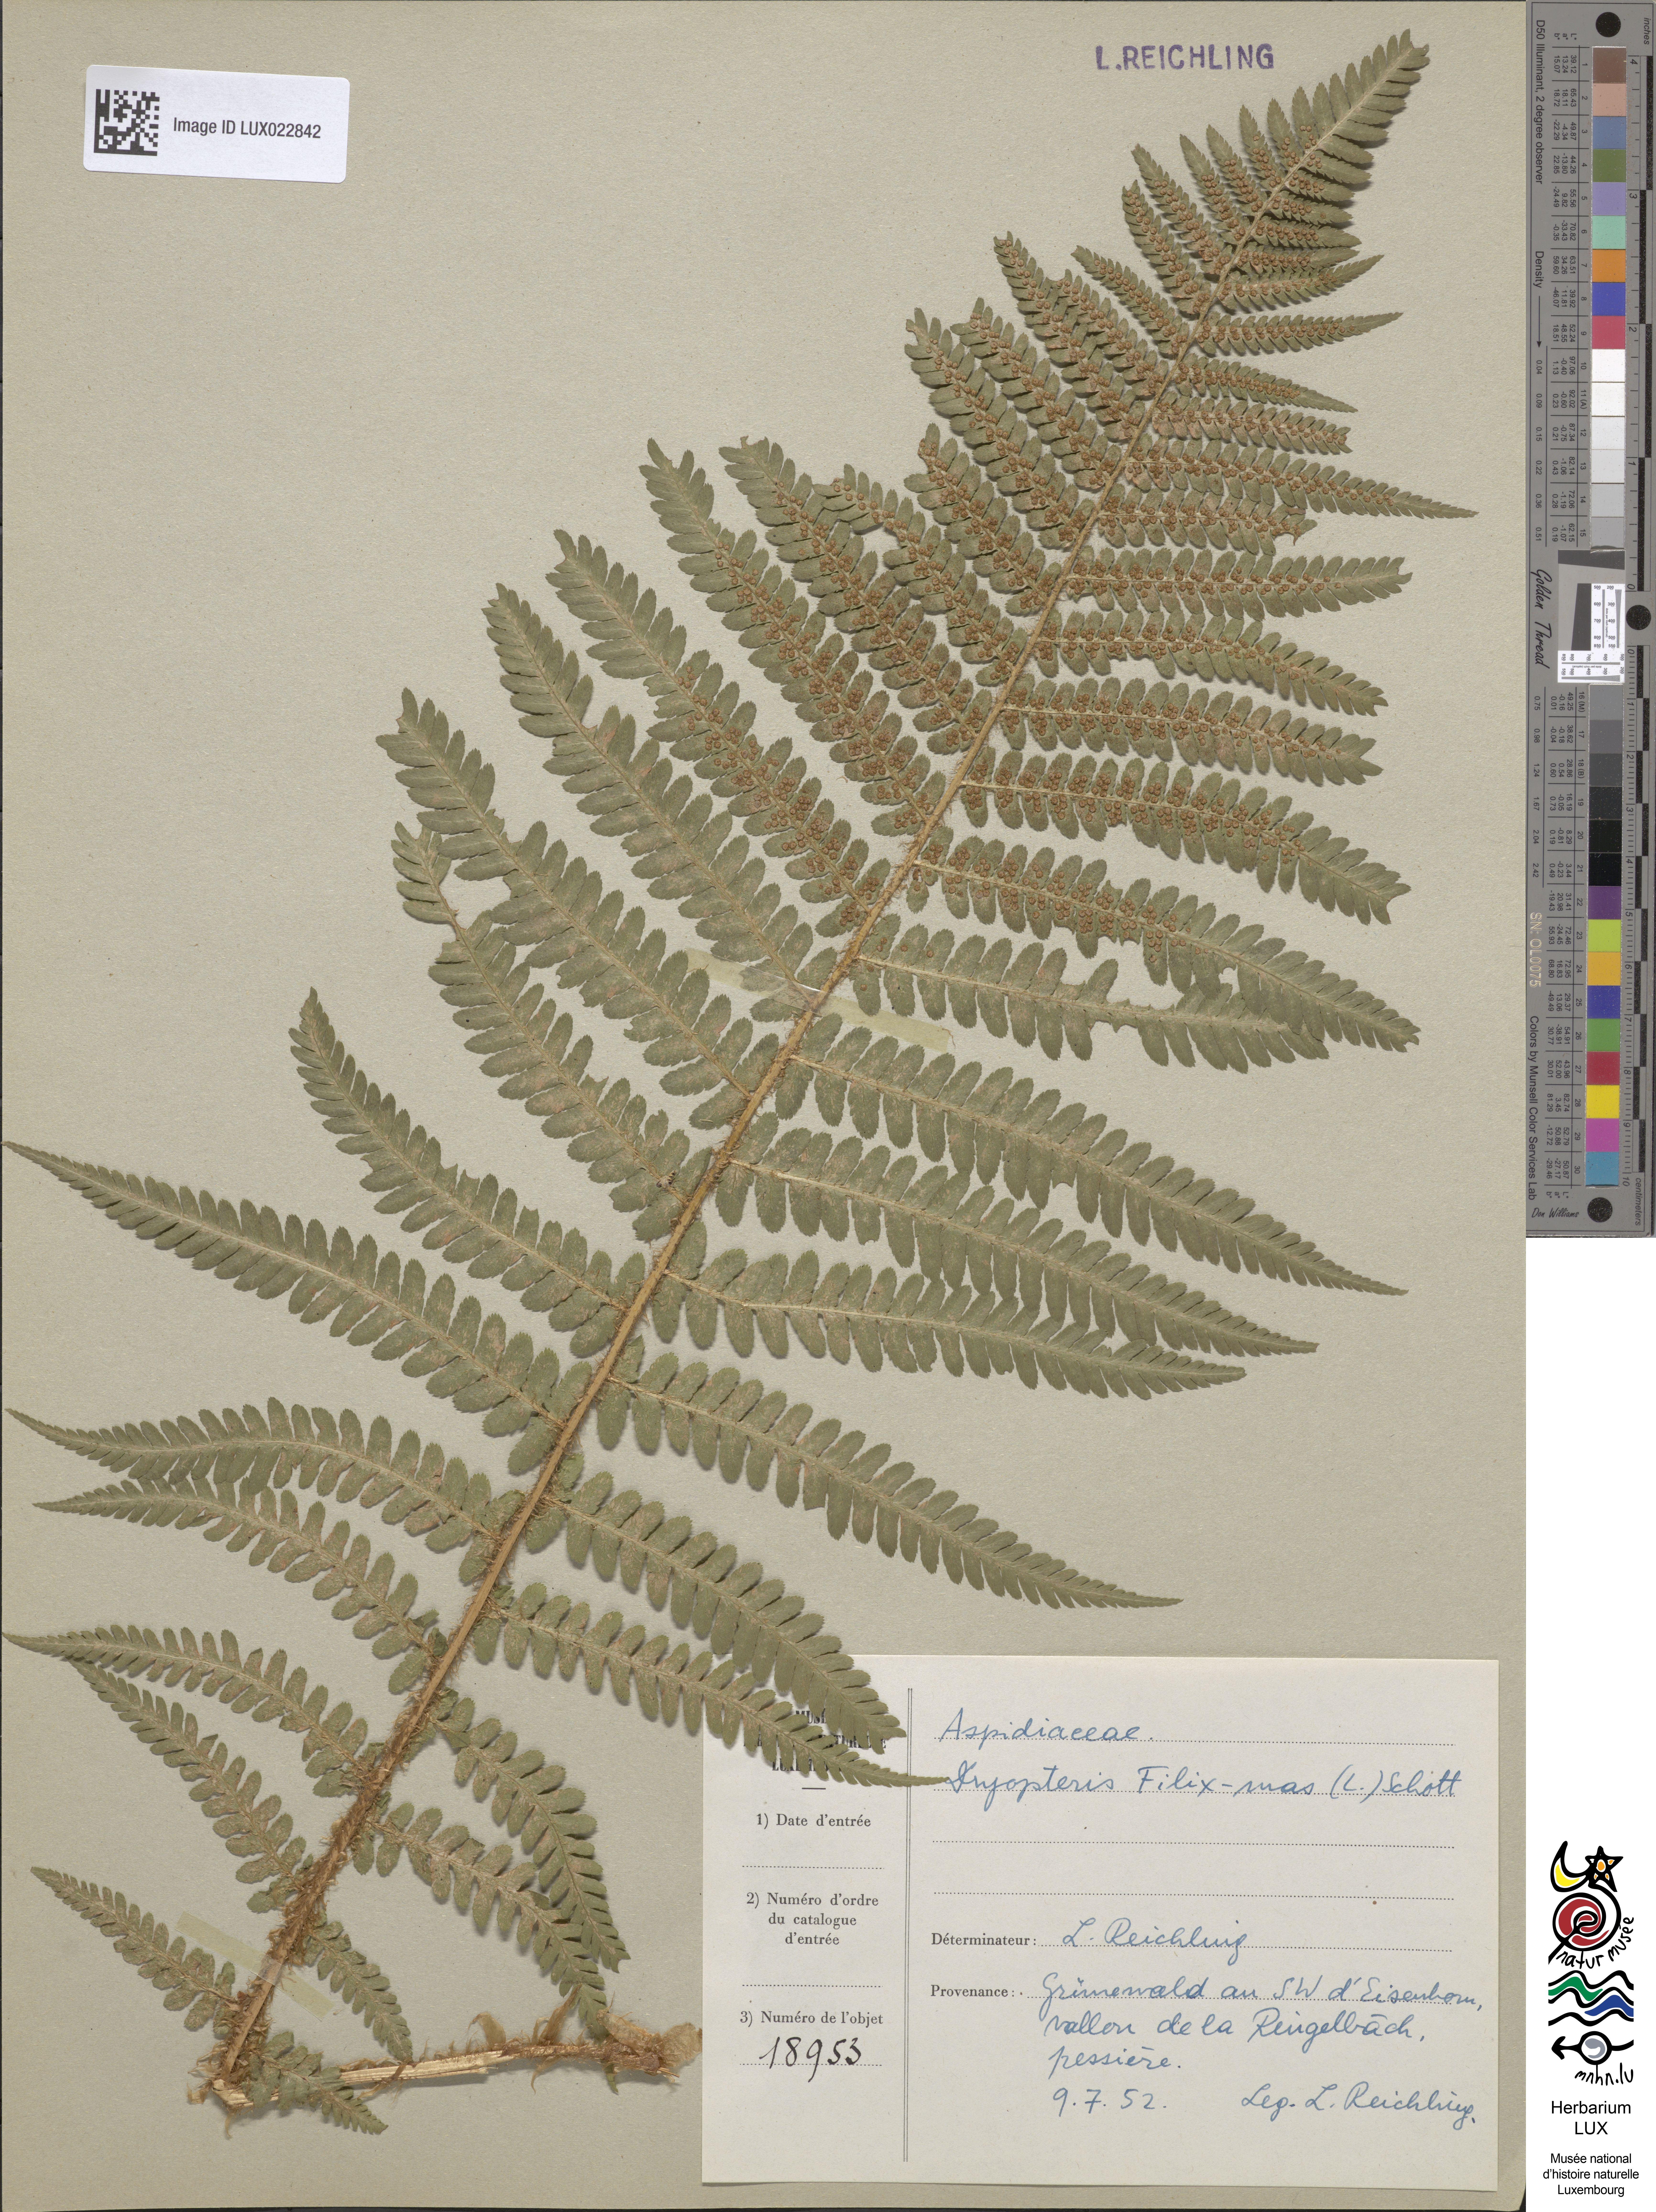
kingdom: Plantae
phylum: Tracheophyta
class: Polypodiopsida
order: Polypodiales
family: Dryopteridaceae
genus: Dryopteris
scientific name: Dryopteris filix-mas
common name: Male fern
